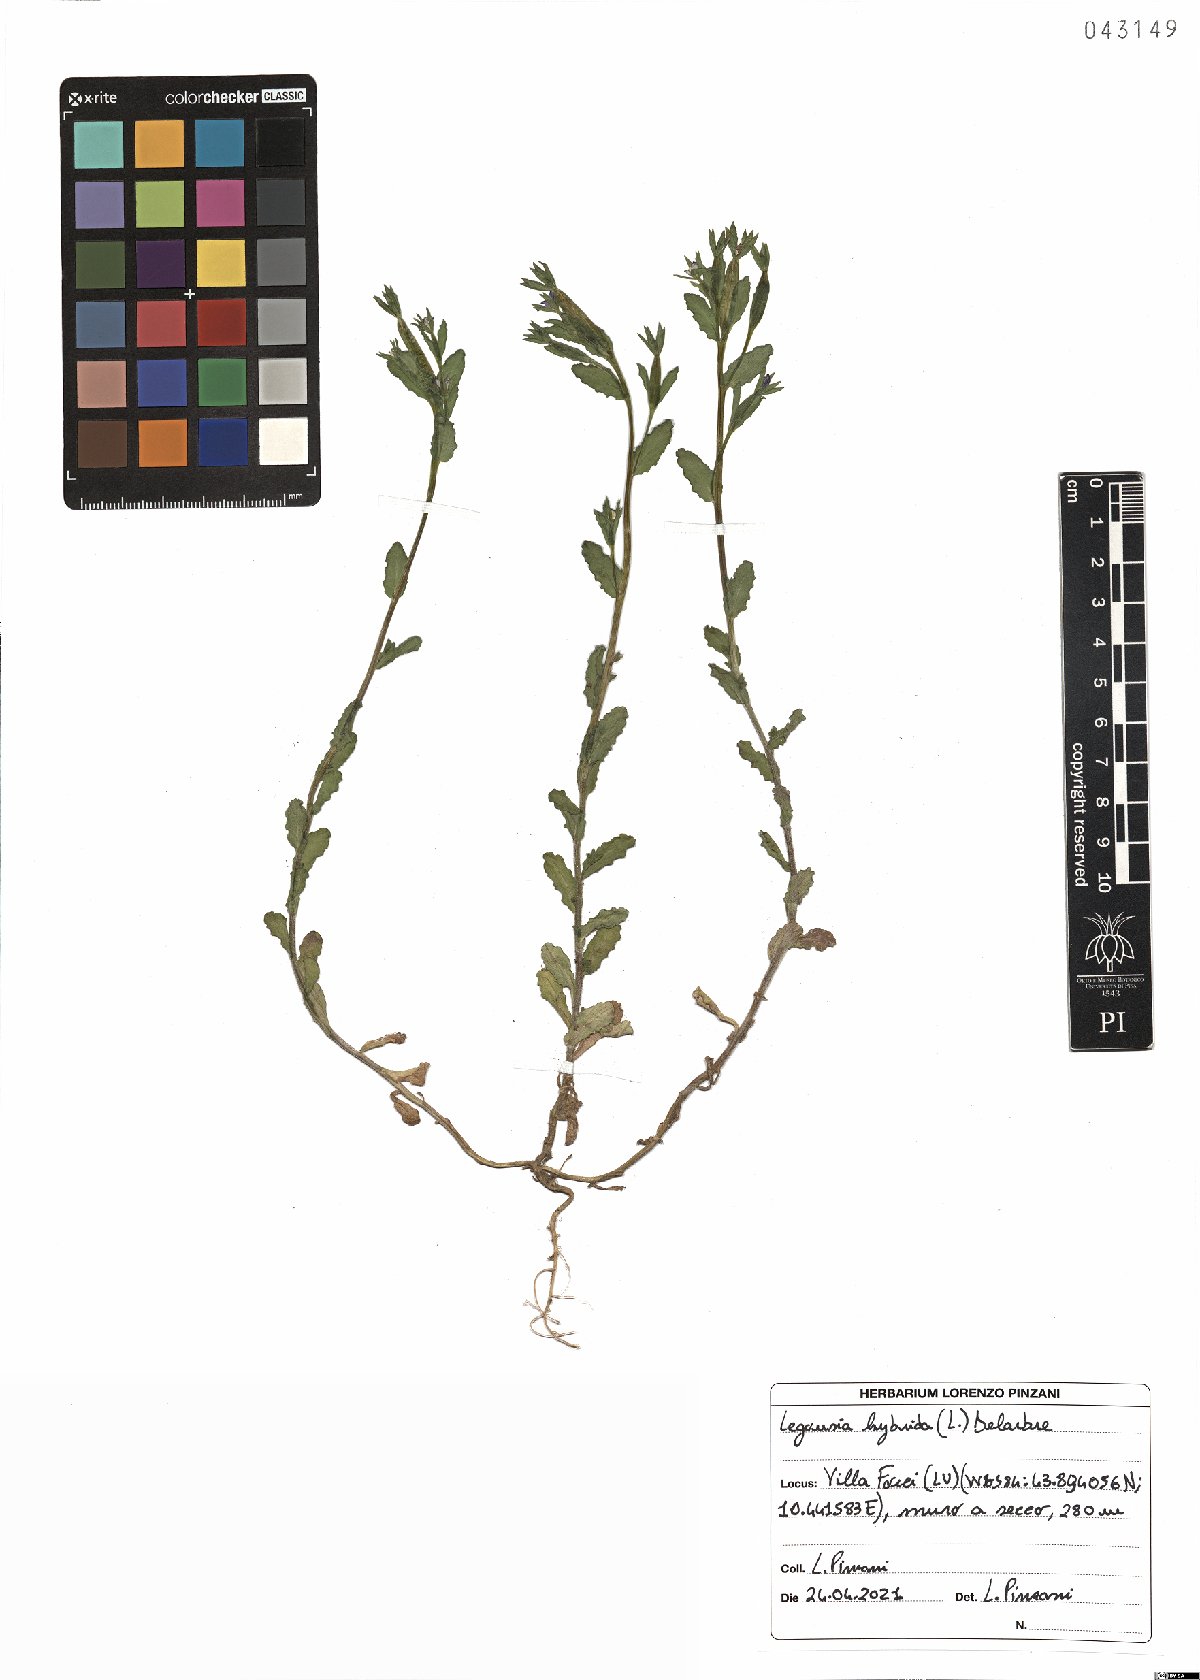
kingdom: Plantae
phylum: Tracheophyta
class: Magnoliopsida
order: Asterales
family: Campanulaceae
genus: Legousia
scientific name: Legousia hybrida
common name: Venus's-looking-glass
